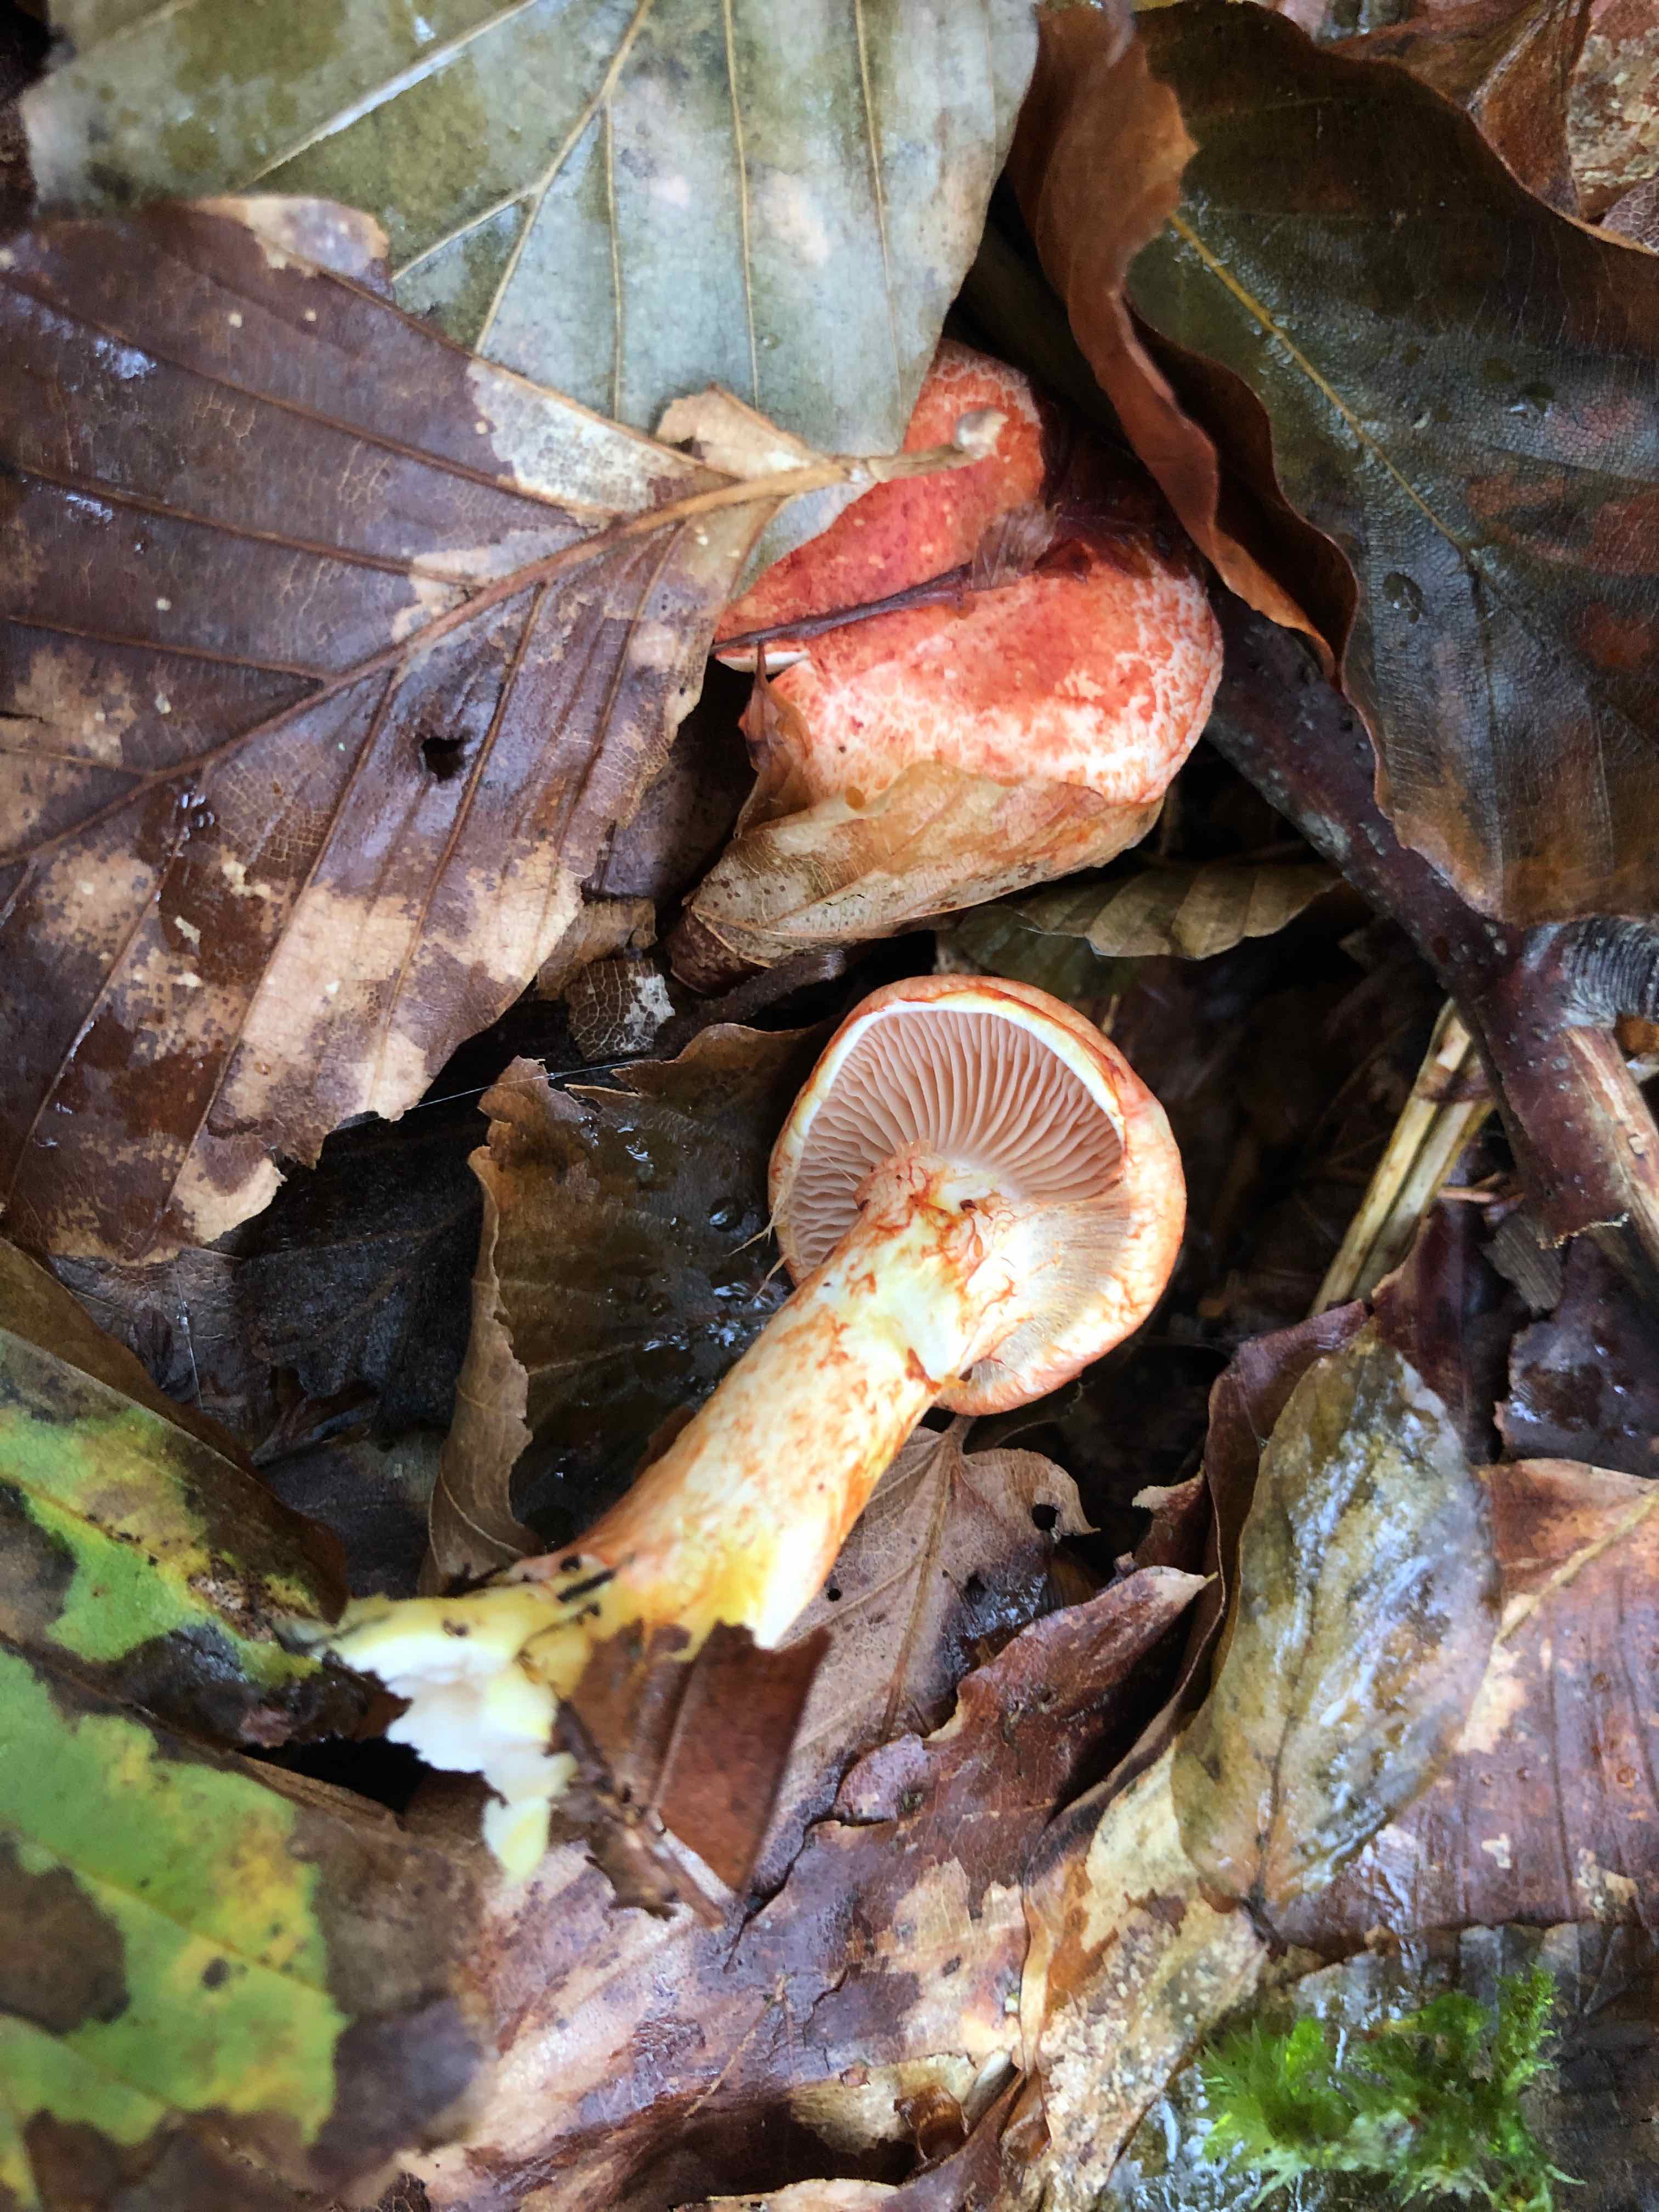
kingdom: Fungi
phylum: Basidiomycota
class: Agaricomycetes
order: Agaricales
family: Cortinariaceae
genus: Cortinarius
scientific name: Cortinarius bolaris
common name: cinnoberskællet slørhat
